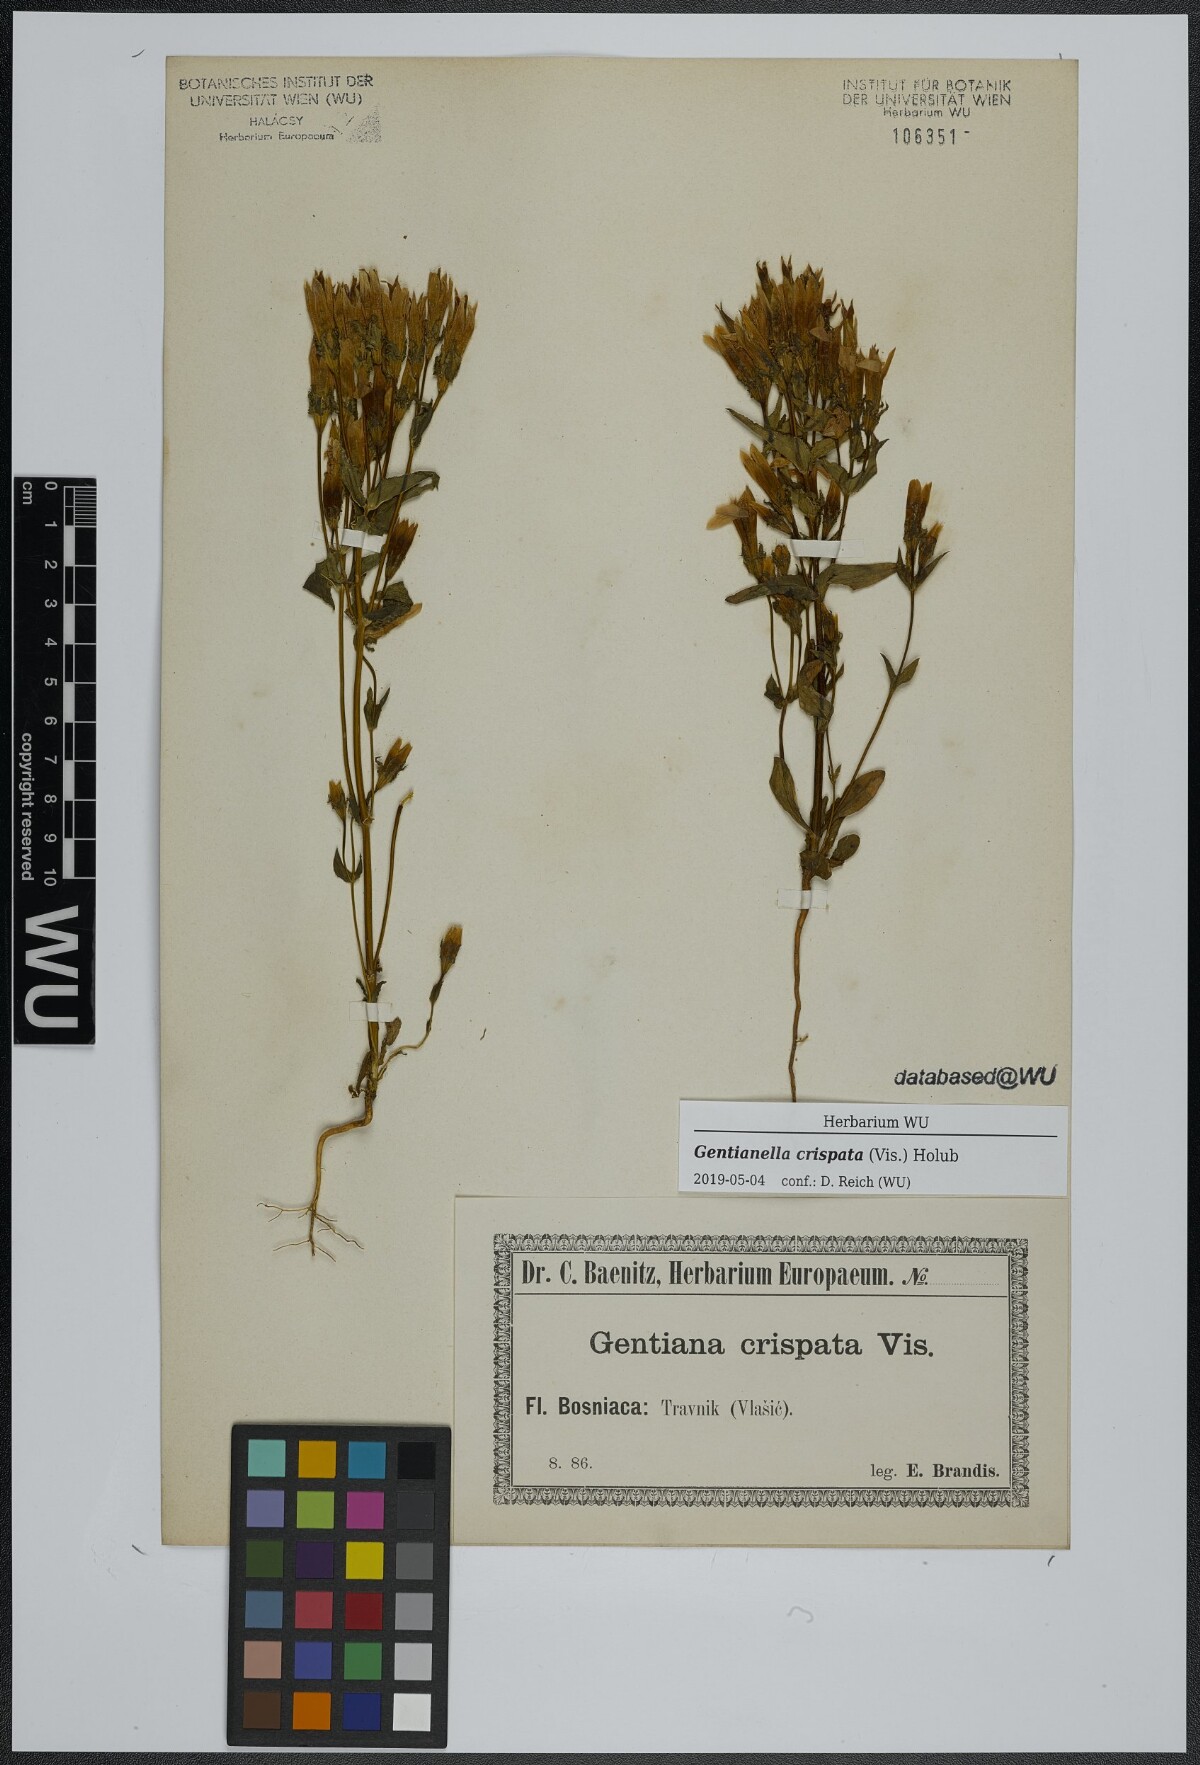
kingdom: Plantae
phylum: Tracheophyta
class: Magnoliopsida
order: Gentianales
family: Gentianaceae
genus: Gentianella
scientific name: Gentianella crispata
